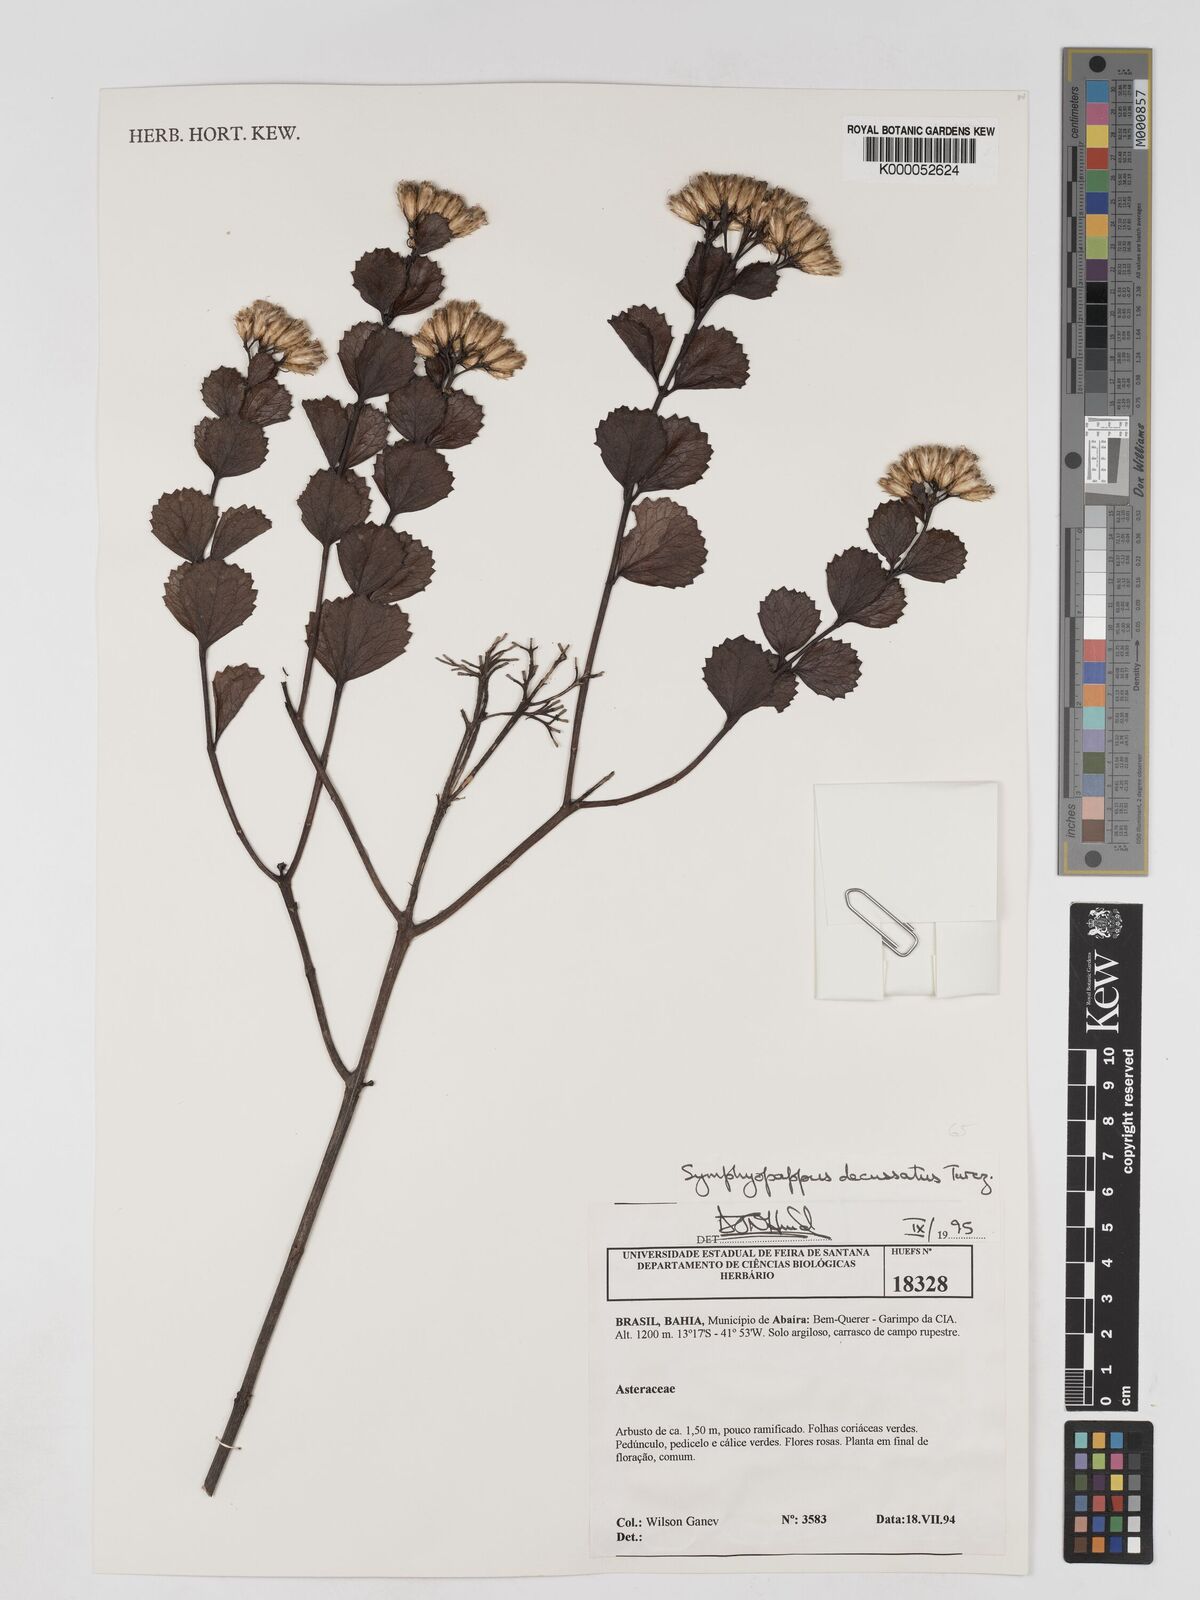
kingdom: Plantae
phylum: Tracheophyta
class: Magnoliopsida
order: Asterales
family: Asteraceae
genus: Symphyopappus
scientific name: Symphyopappus decussatus
